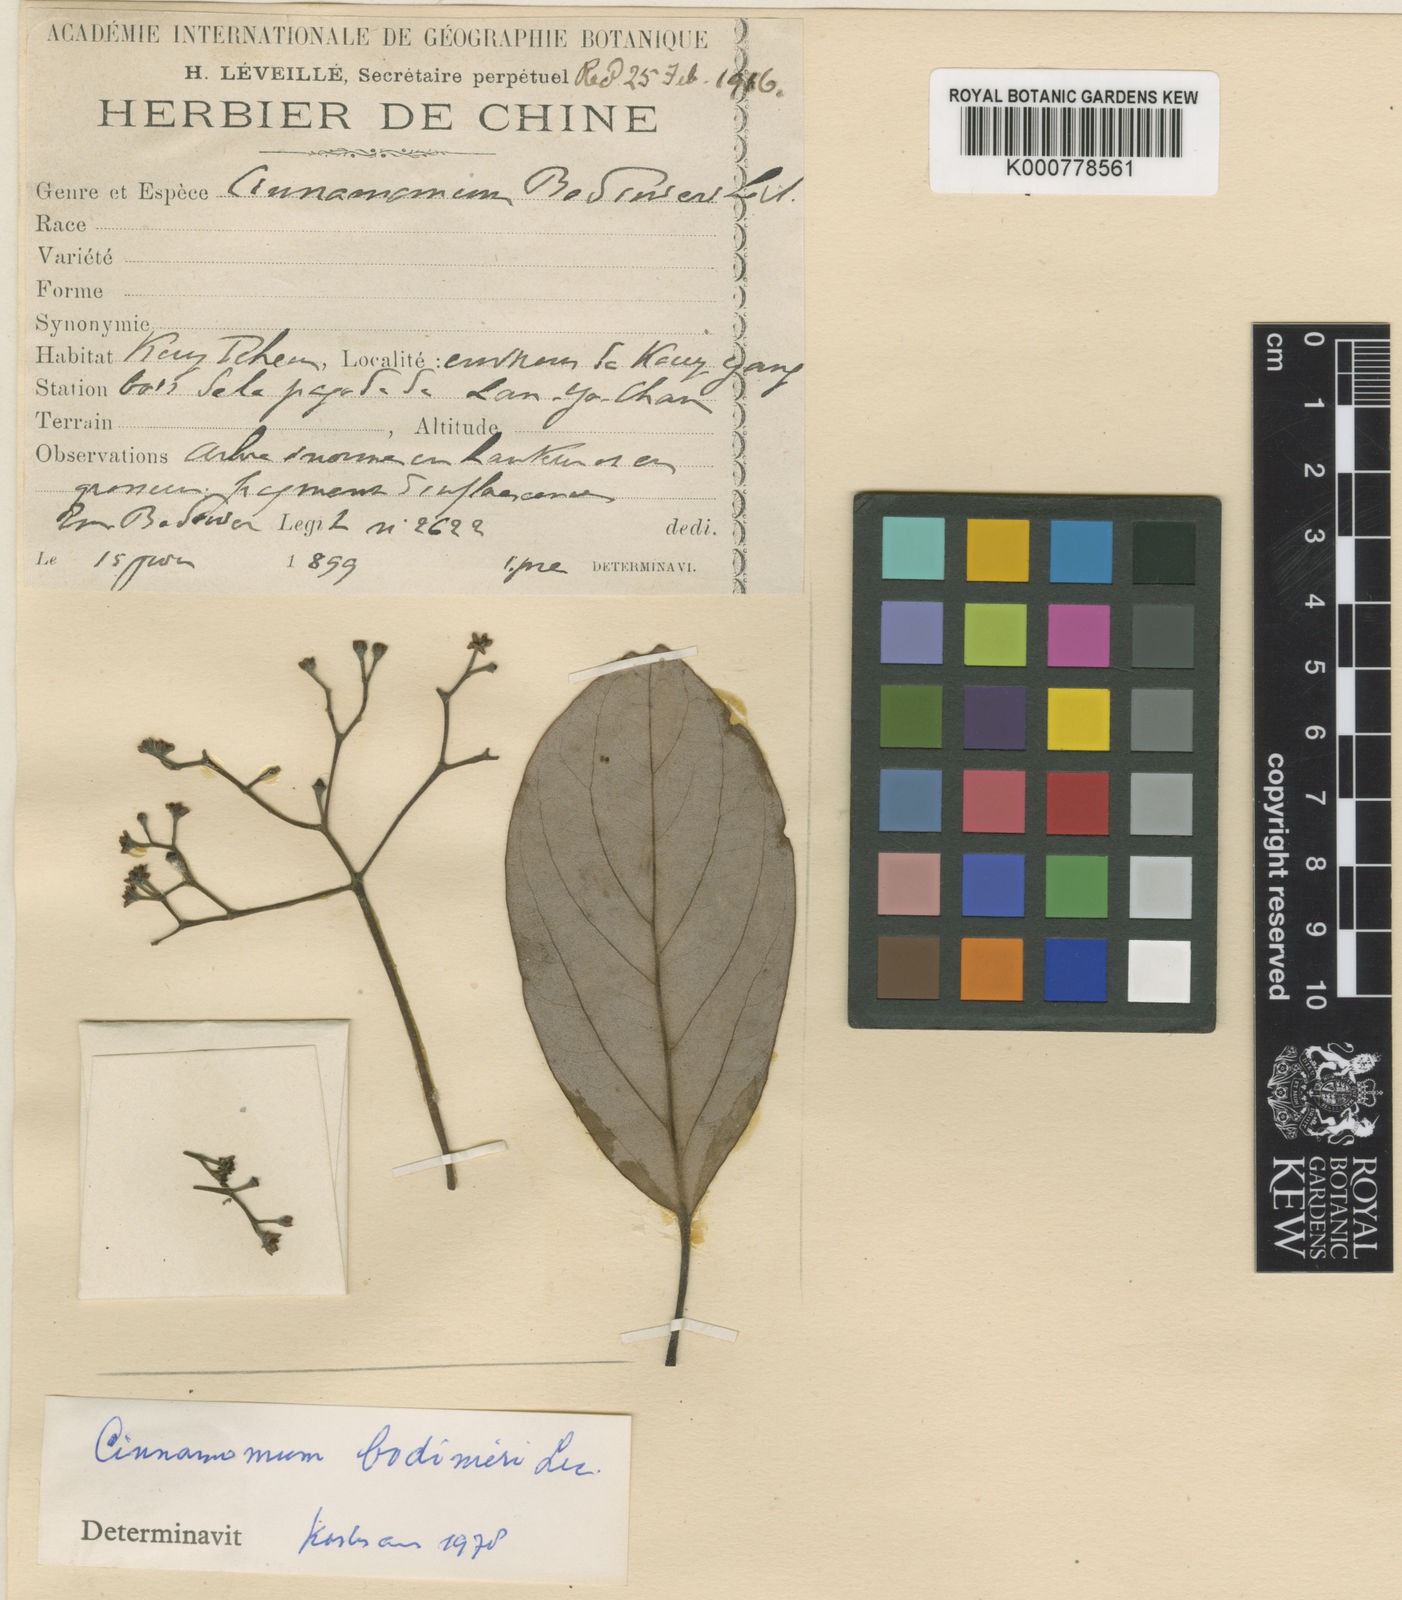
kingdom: Plantae
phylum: Tracheophyta
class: Magnoliopsida
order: Laurales
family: Lauraceae
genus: Cinnamomum
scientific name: Cinnamomum
